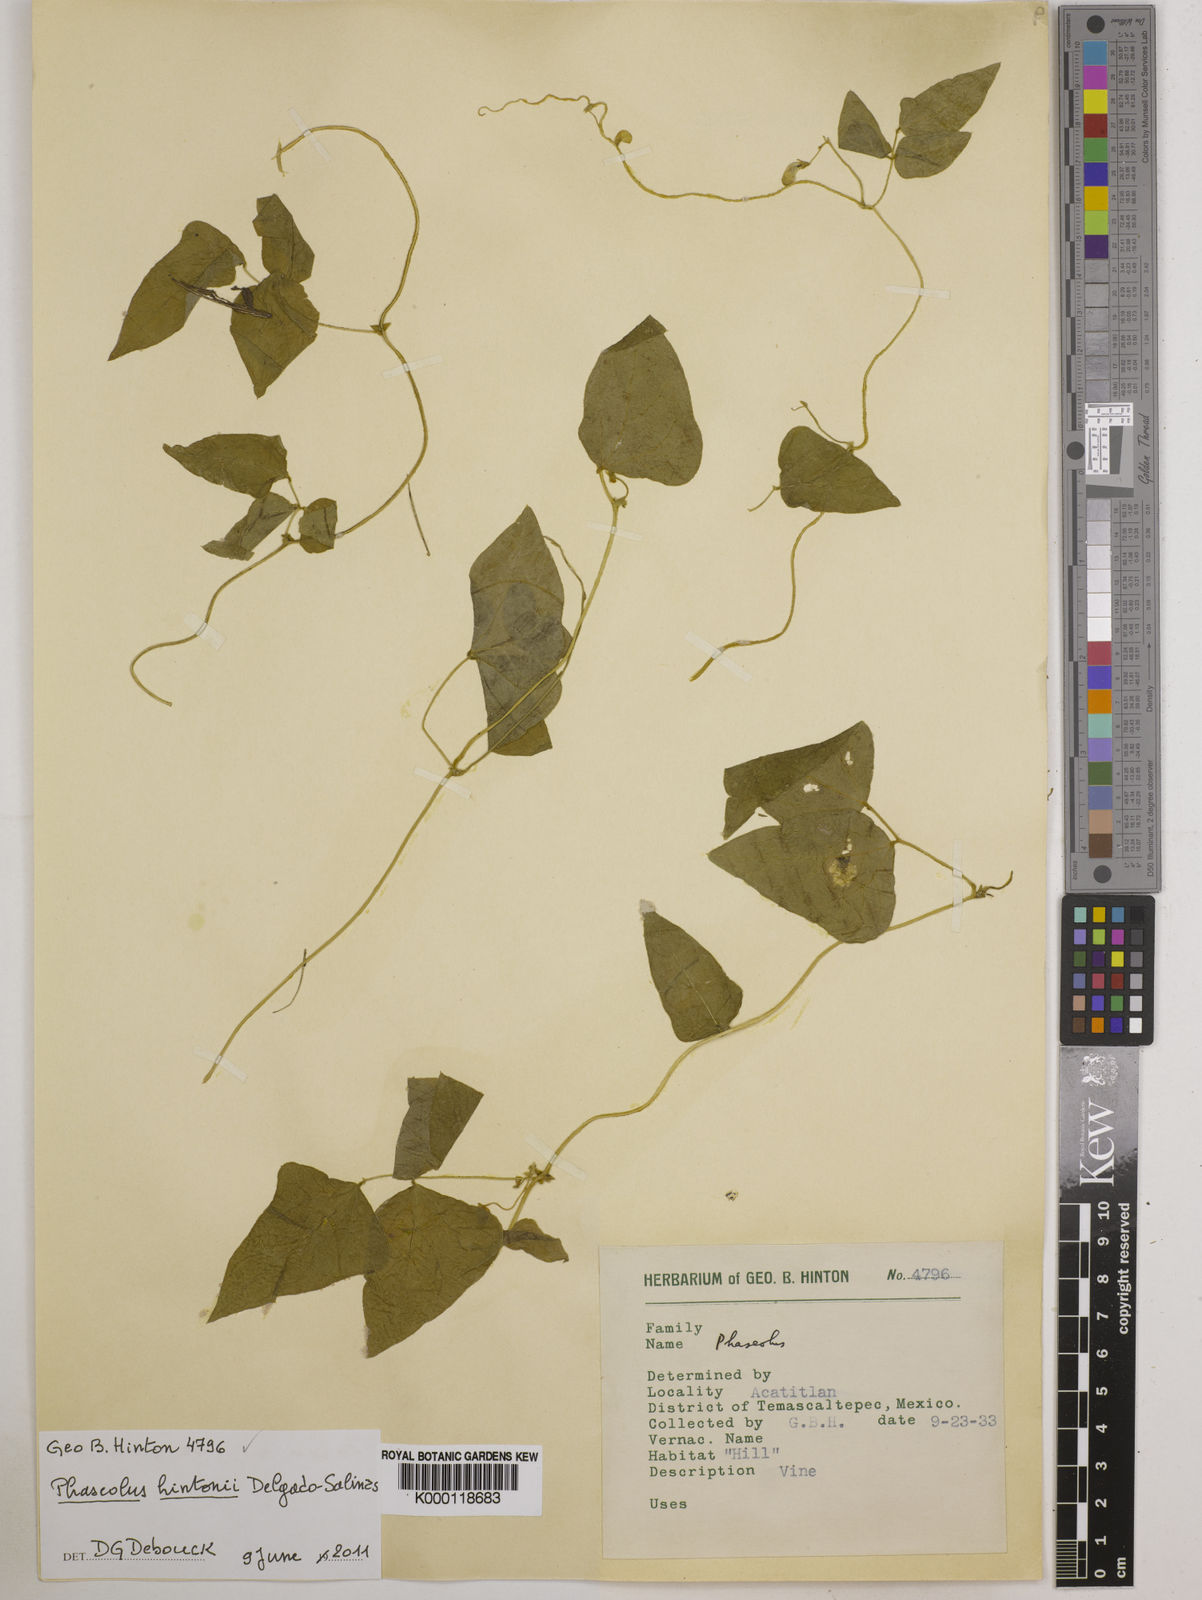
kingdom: Plantae
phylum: Tracheophyta
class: Magnoliopsida
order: Fabales
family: Fabaceae
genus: Phaseolus
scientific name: Phaseolus hintonii
